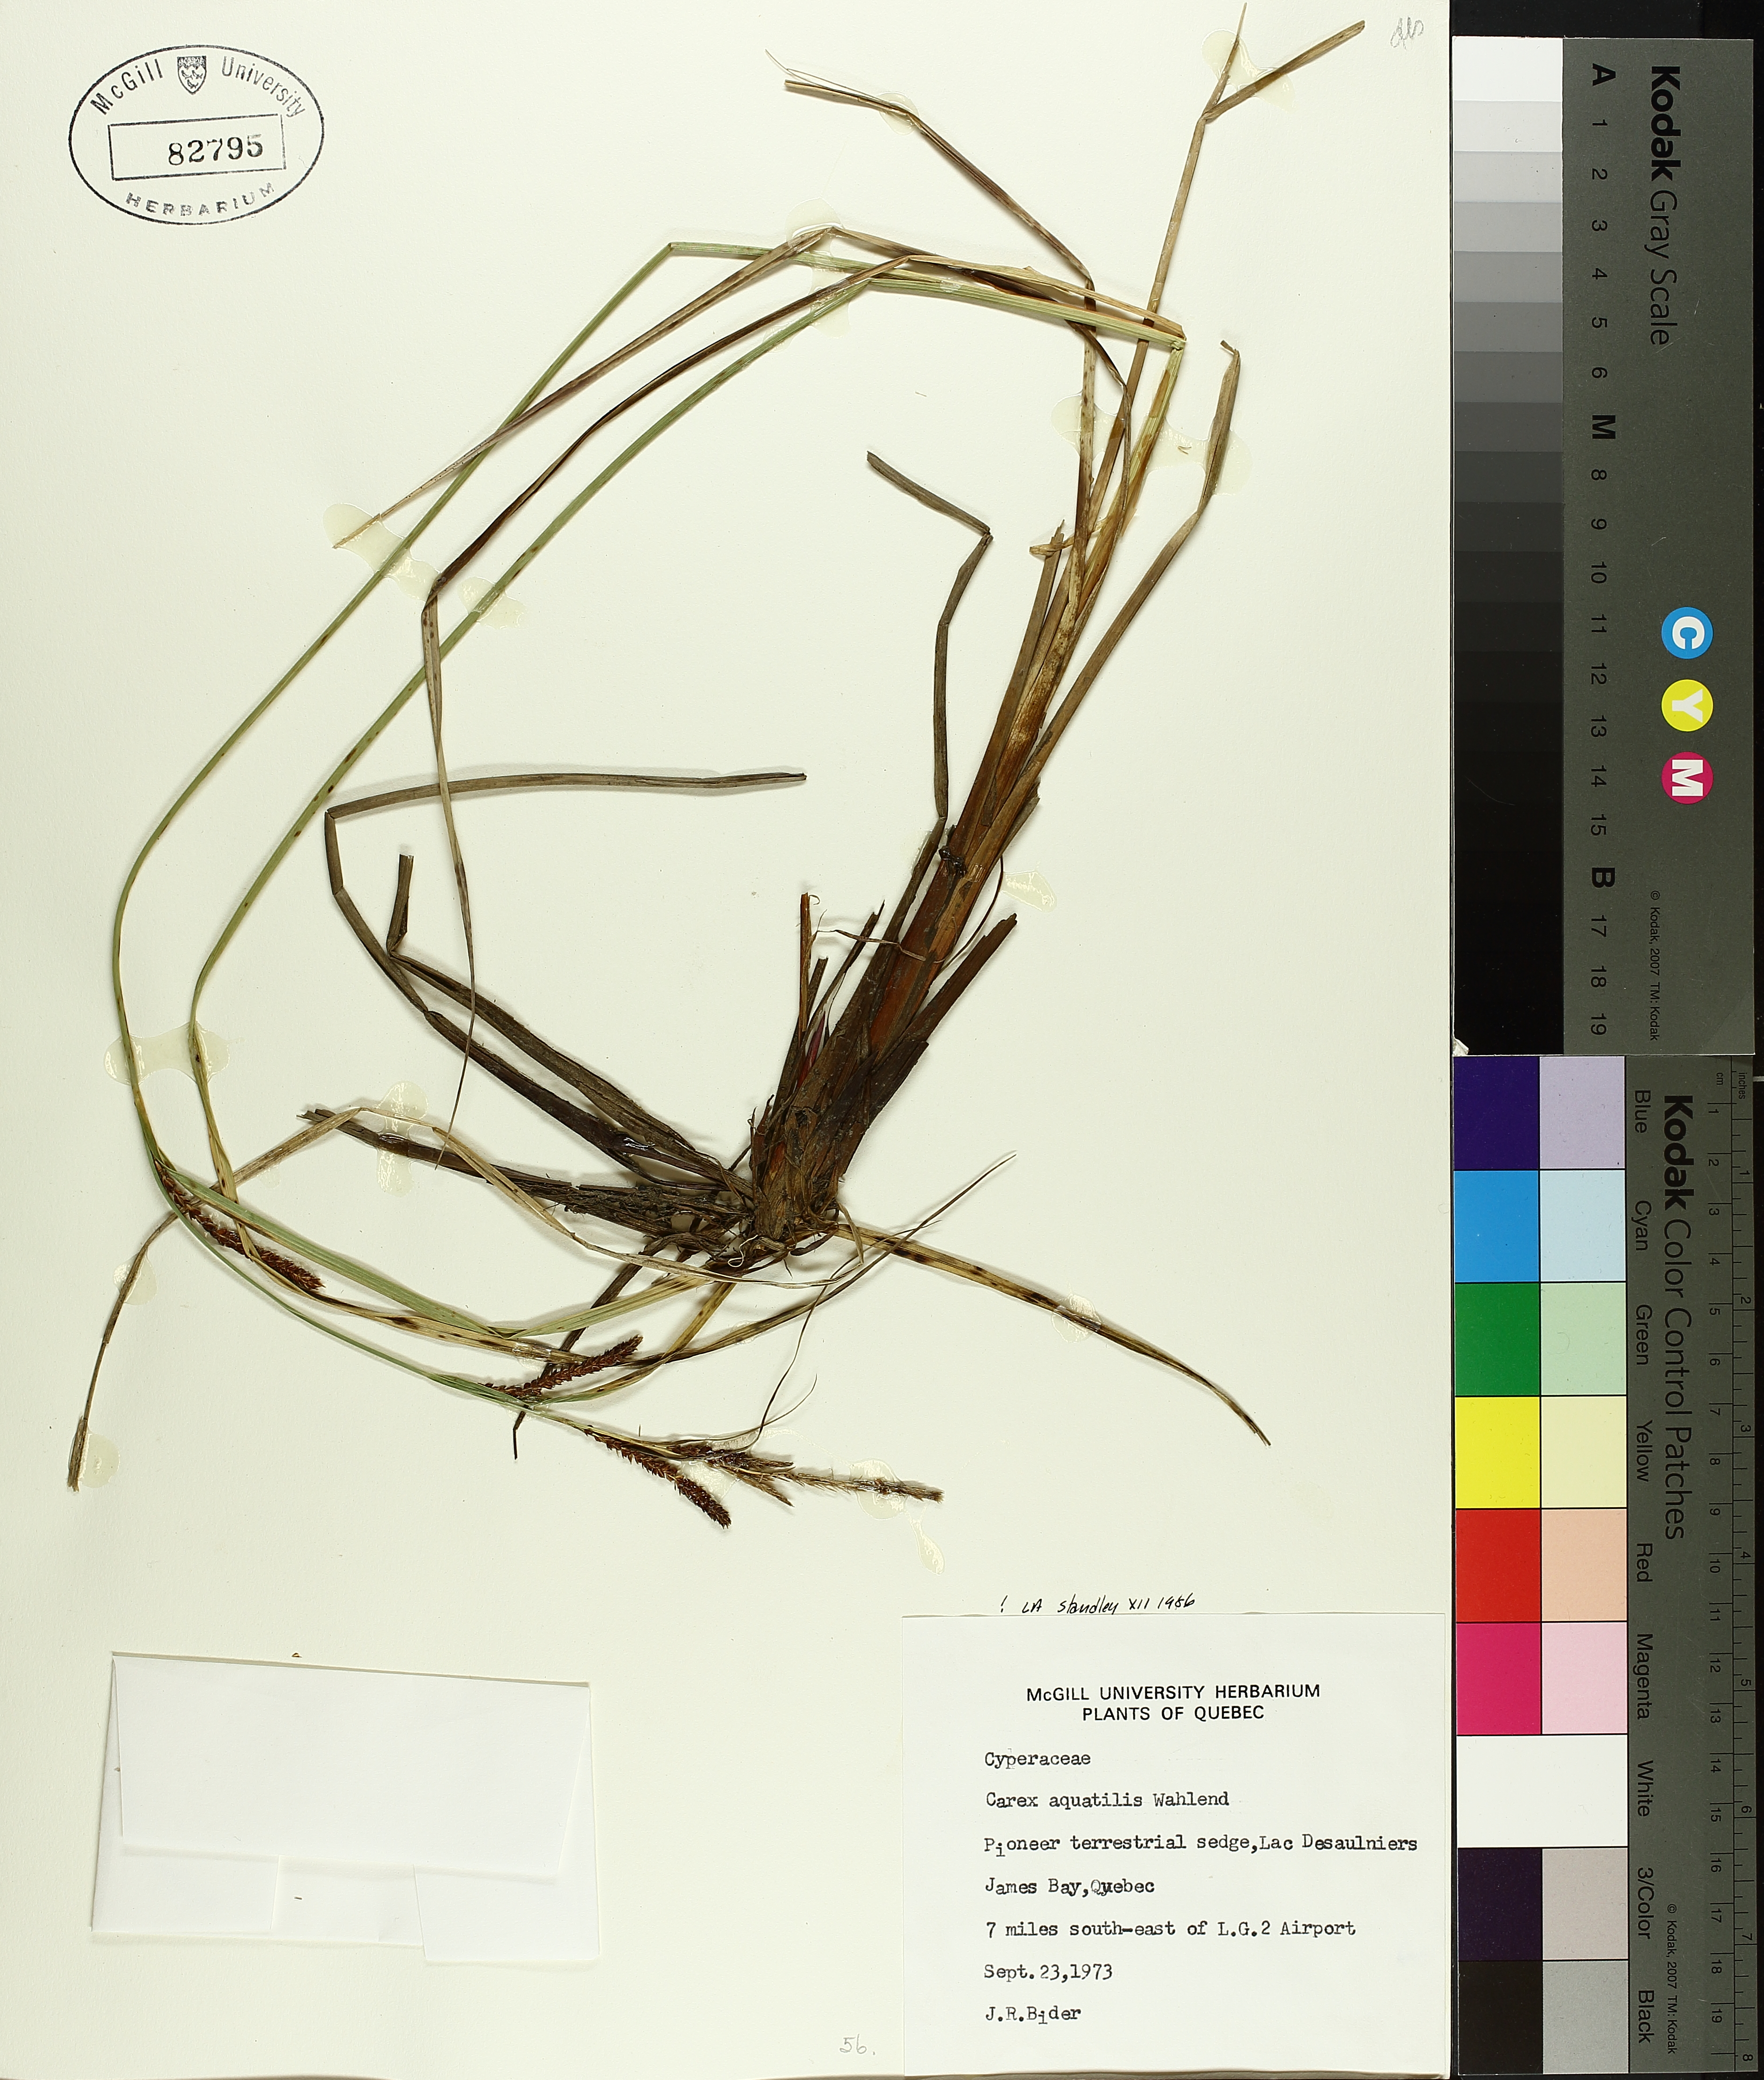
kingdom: Plantae
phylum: Tracheophyta
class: Liliopsida
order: Poales
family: Cyperaceae
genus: Carex
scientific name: Carex aquatilis
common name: Water sedge
